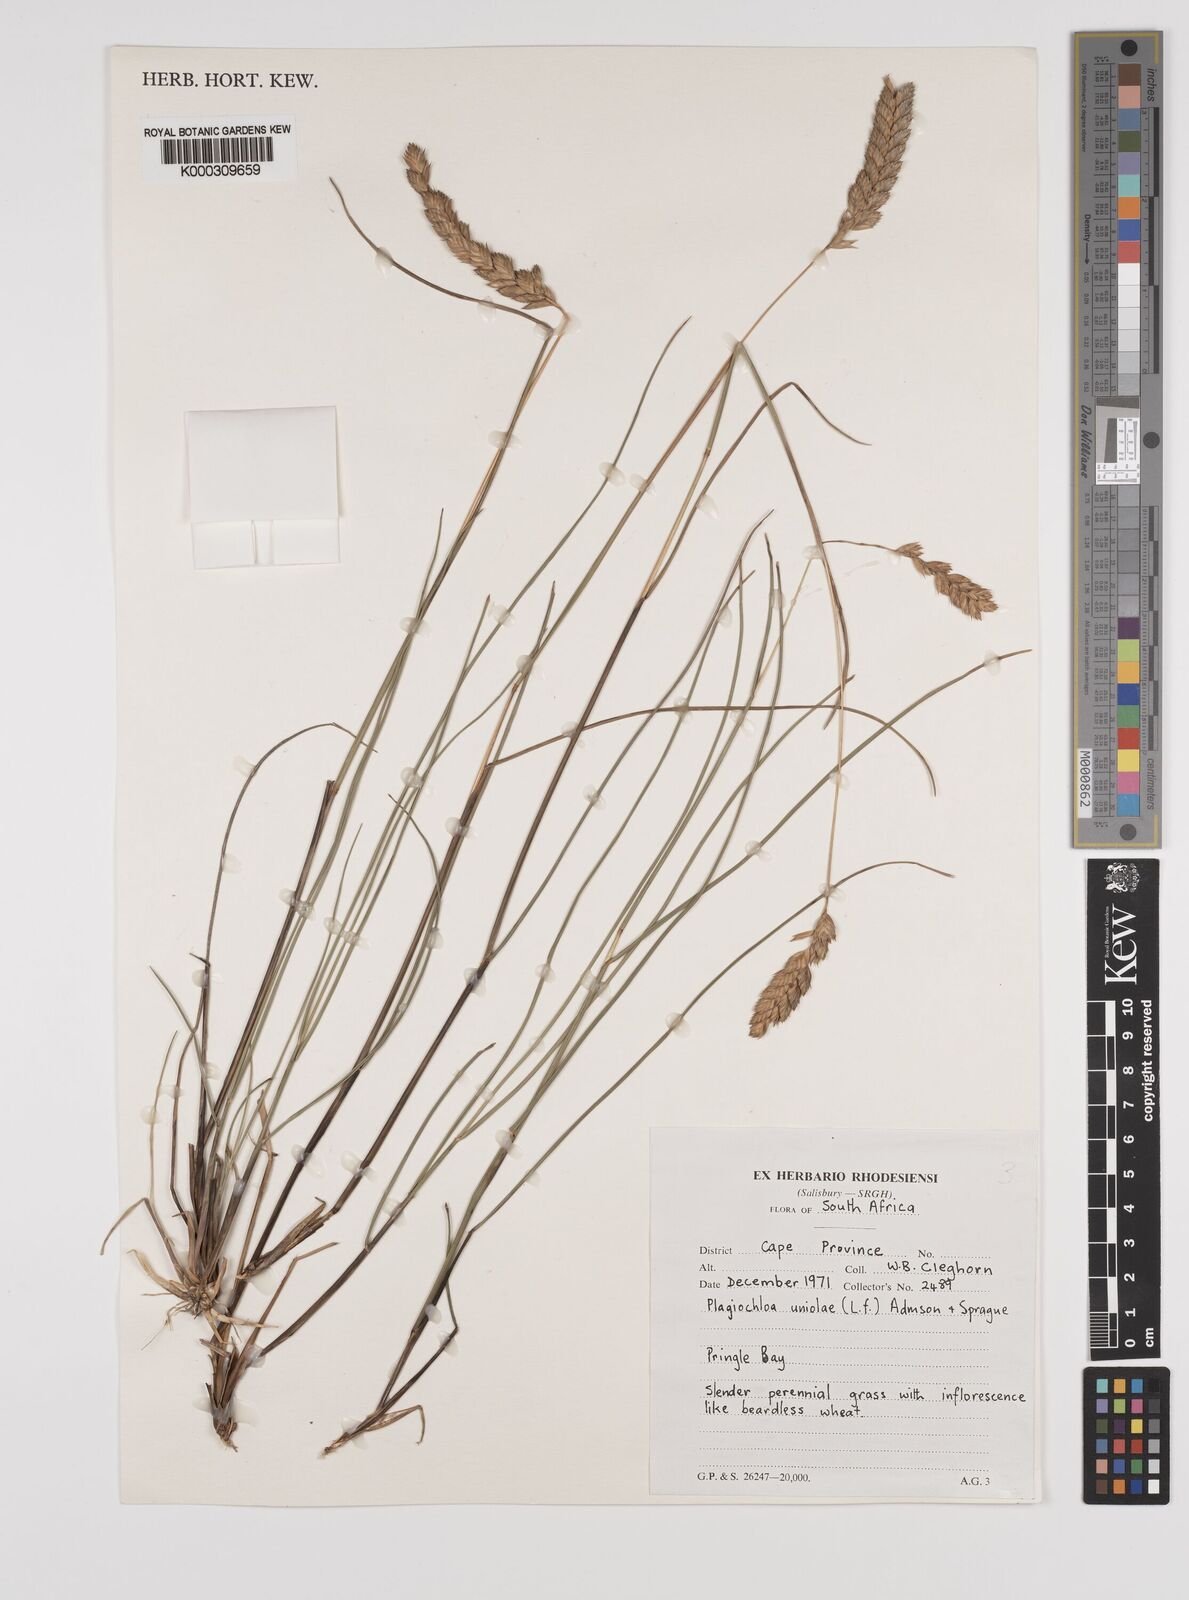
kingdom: Plantae
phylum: Tracheophyta
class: Liliopsida
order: Poales
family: Poaceae
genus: Tribolium
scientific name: Tribolium uniolae
